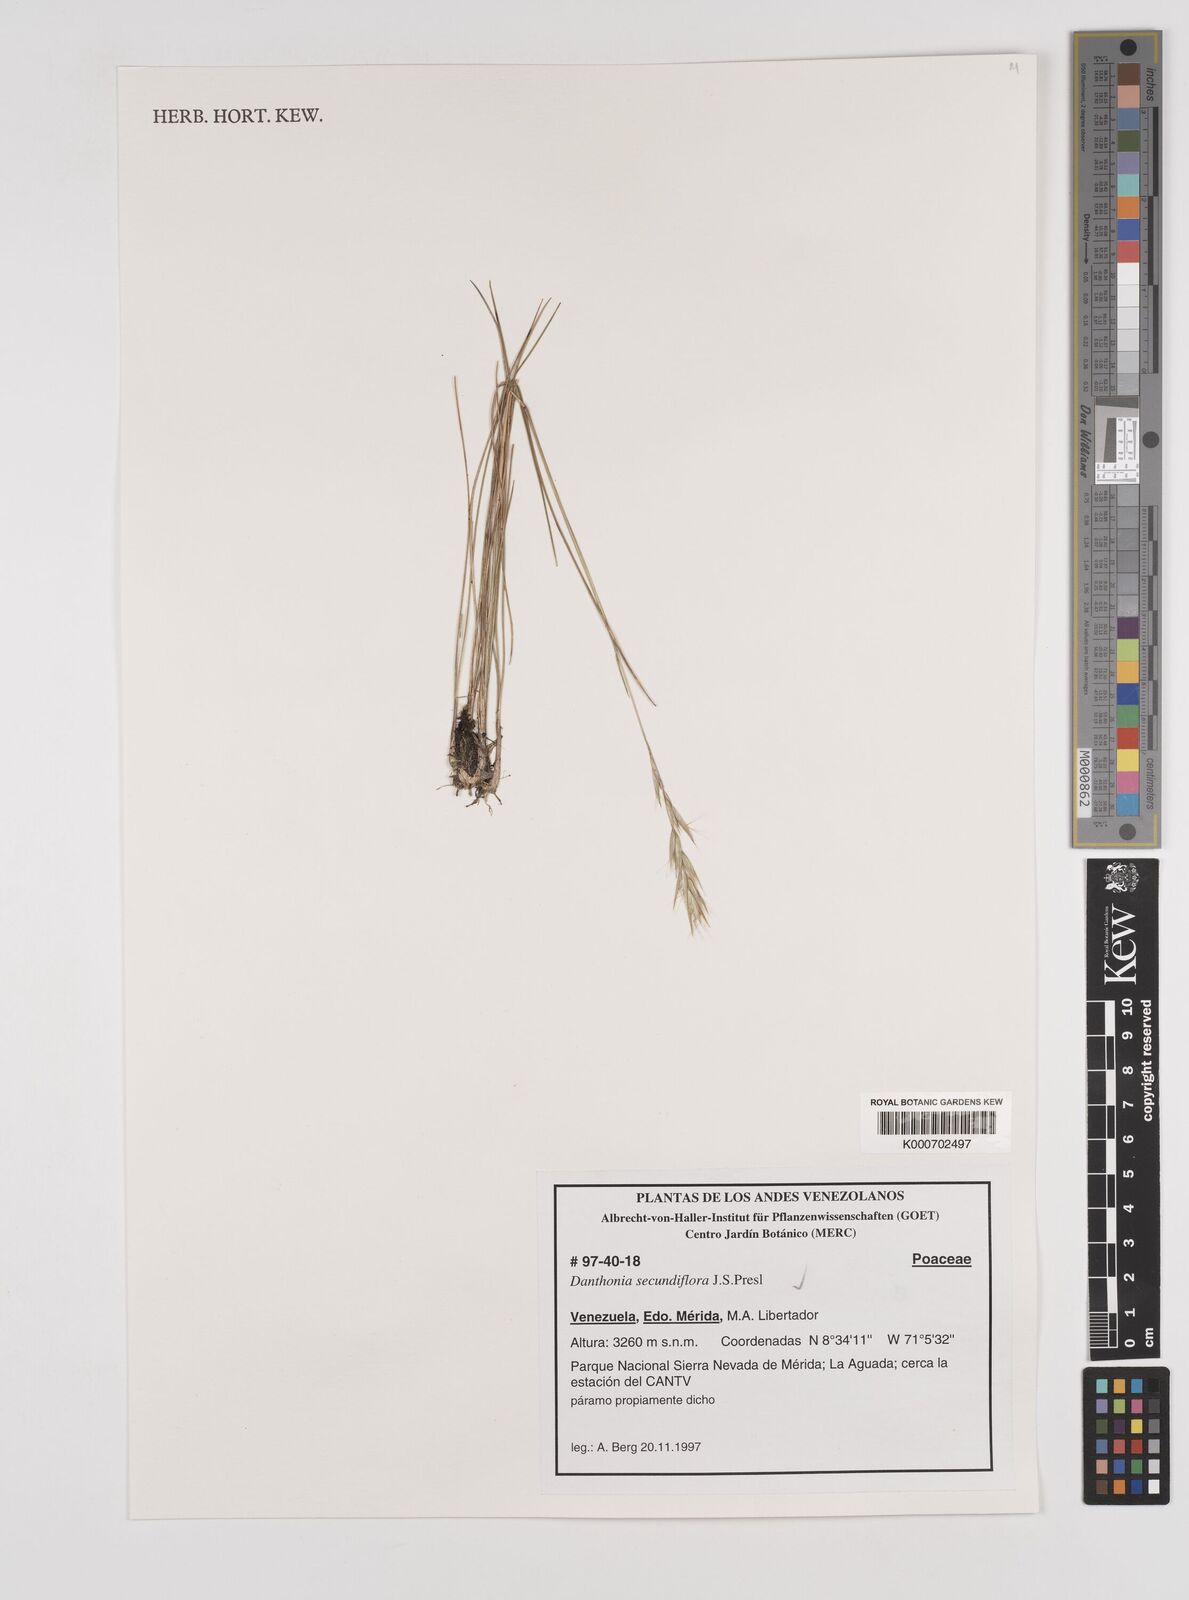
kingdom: Plantae
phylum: Tracheophyta
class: Liliopsida
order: Poales
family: Poaceae
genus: Danthonia
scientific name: Danthonia secundiflora
